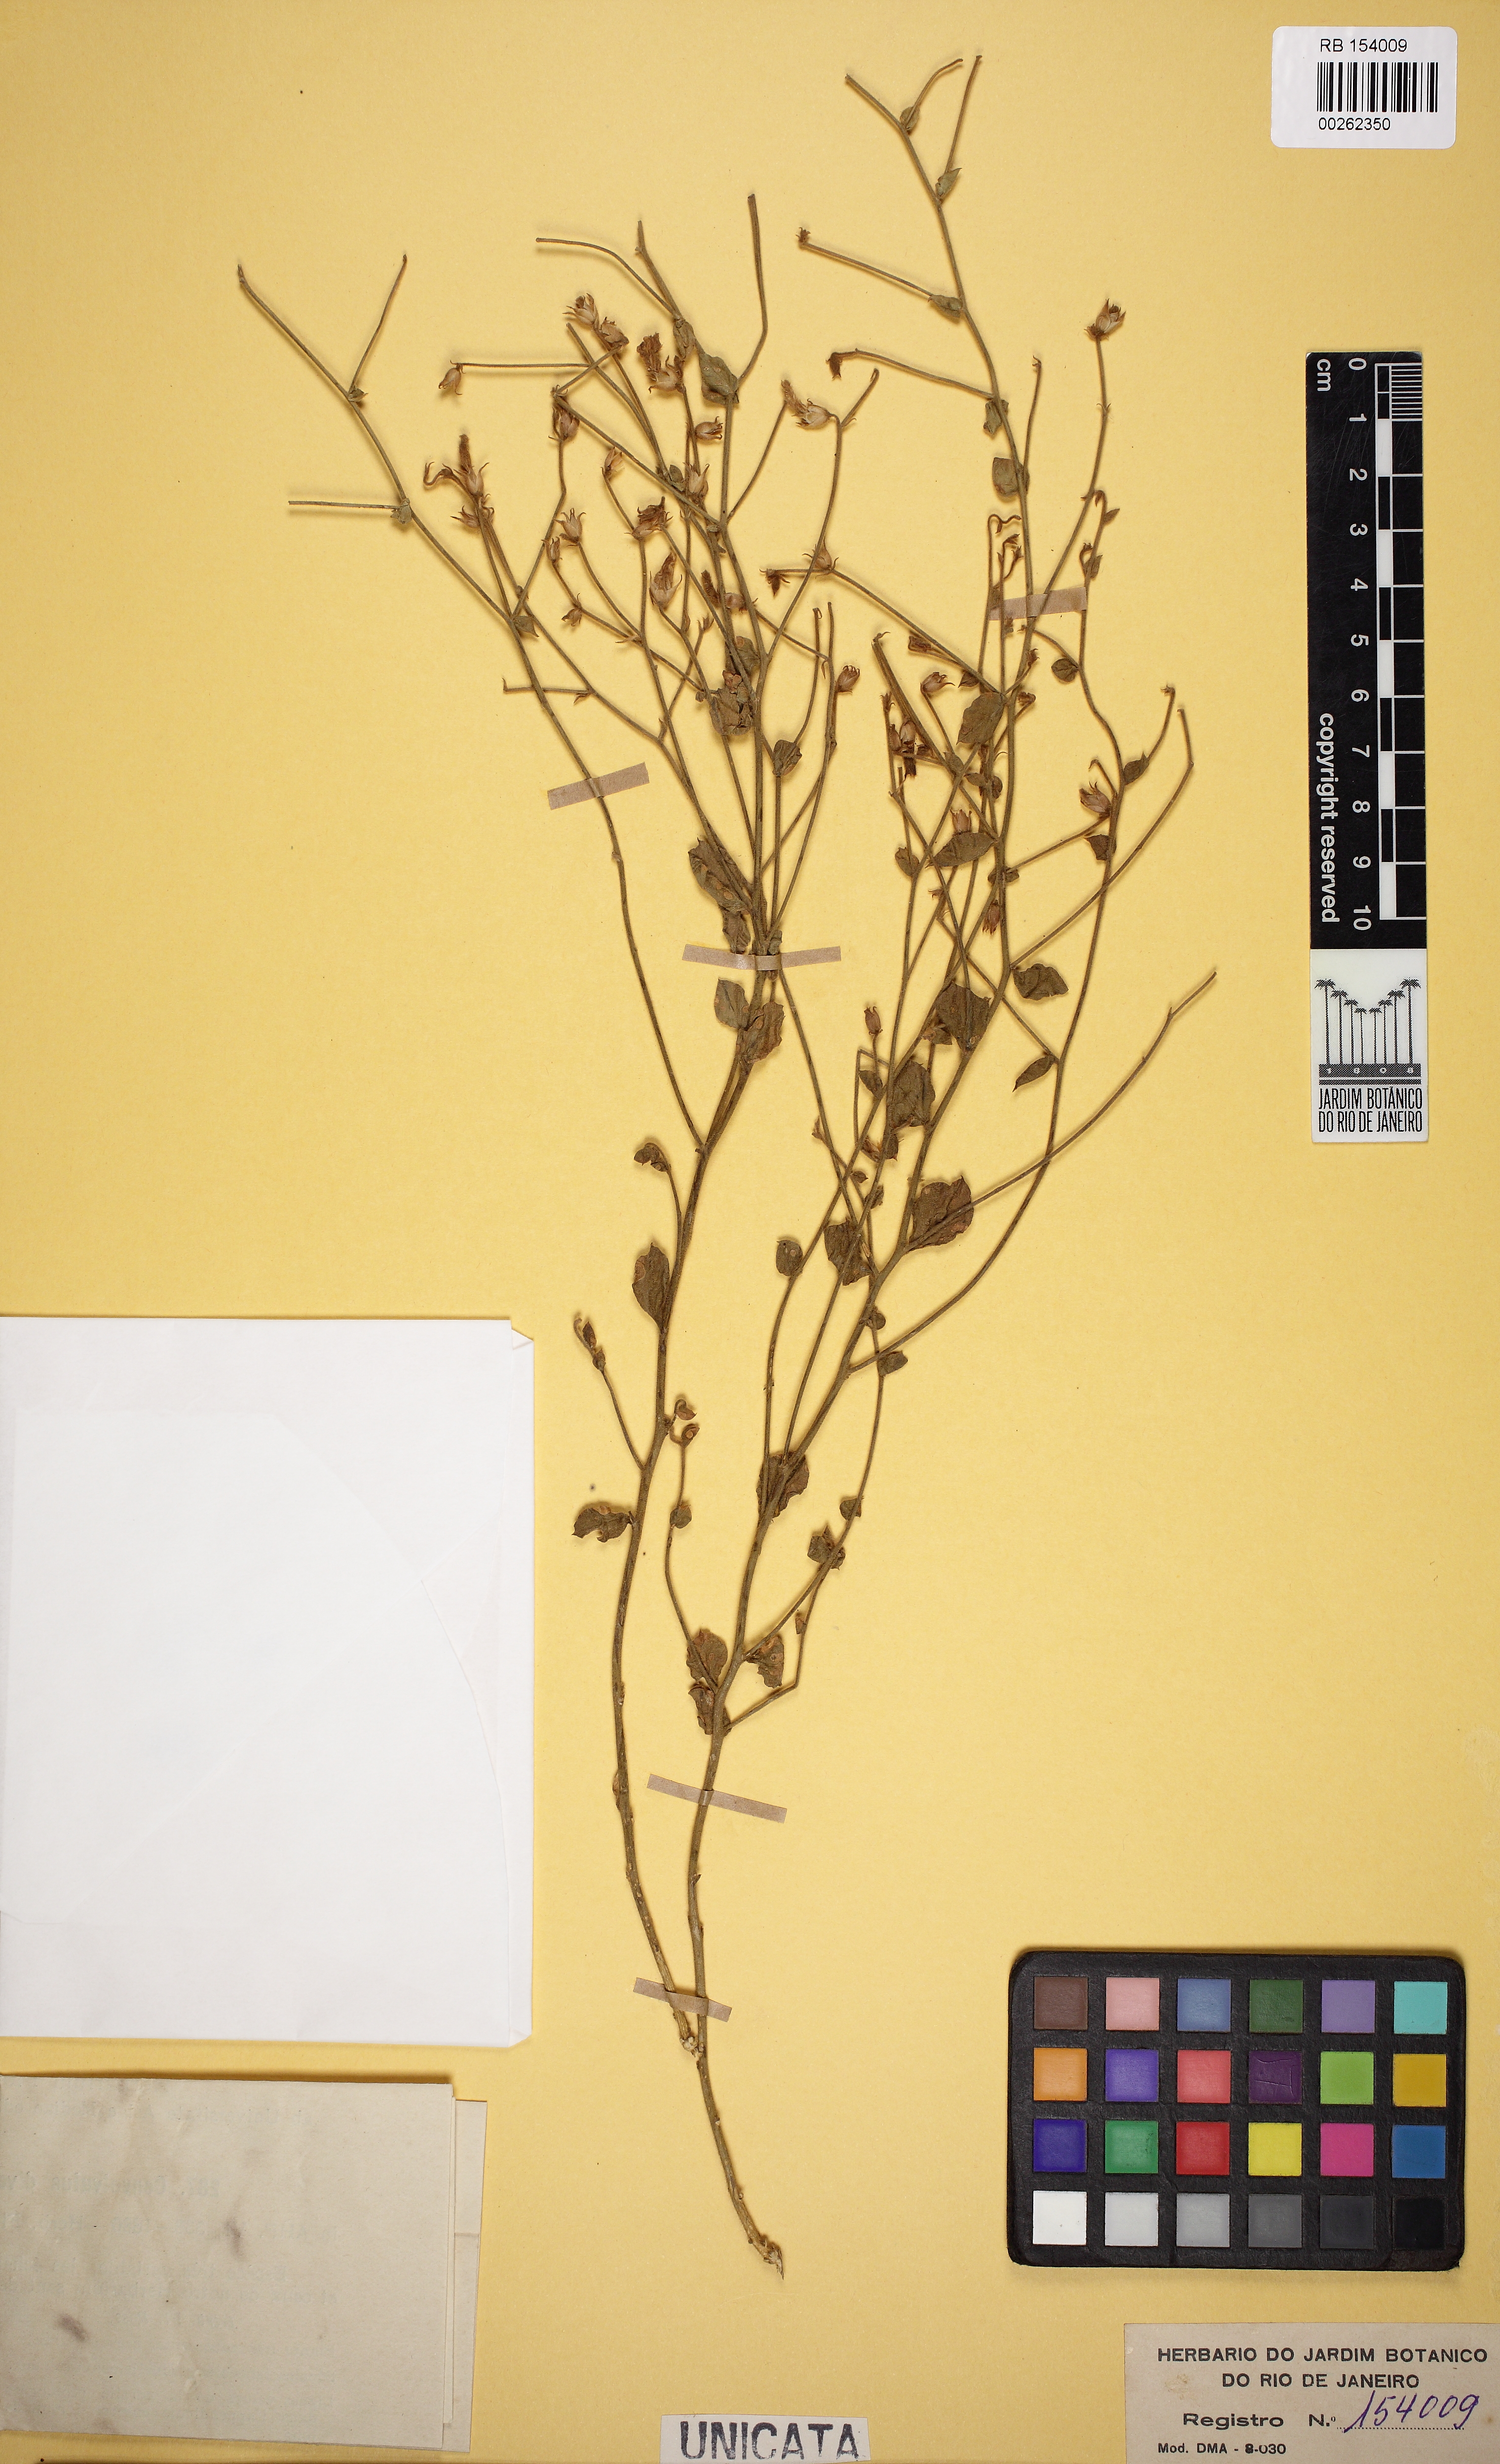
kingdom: Plantae
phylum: Tracheophyta
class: Magnoliopsida
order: Solanales
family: Convolvulaceae
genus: Convolvulus
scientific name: Convolvulus divaricatus
